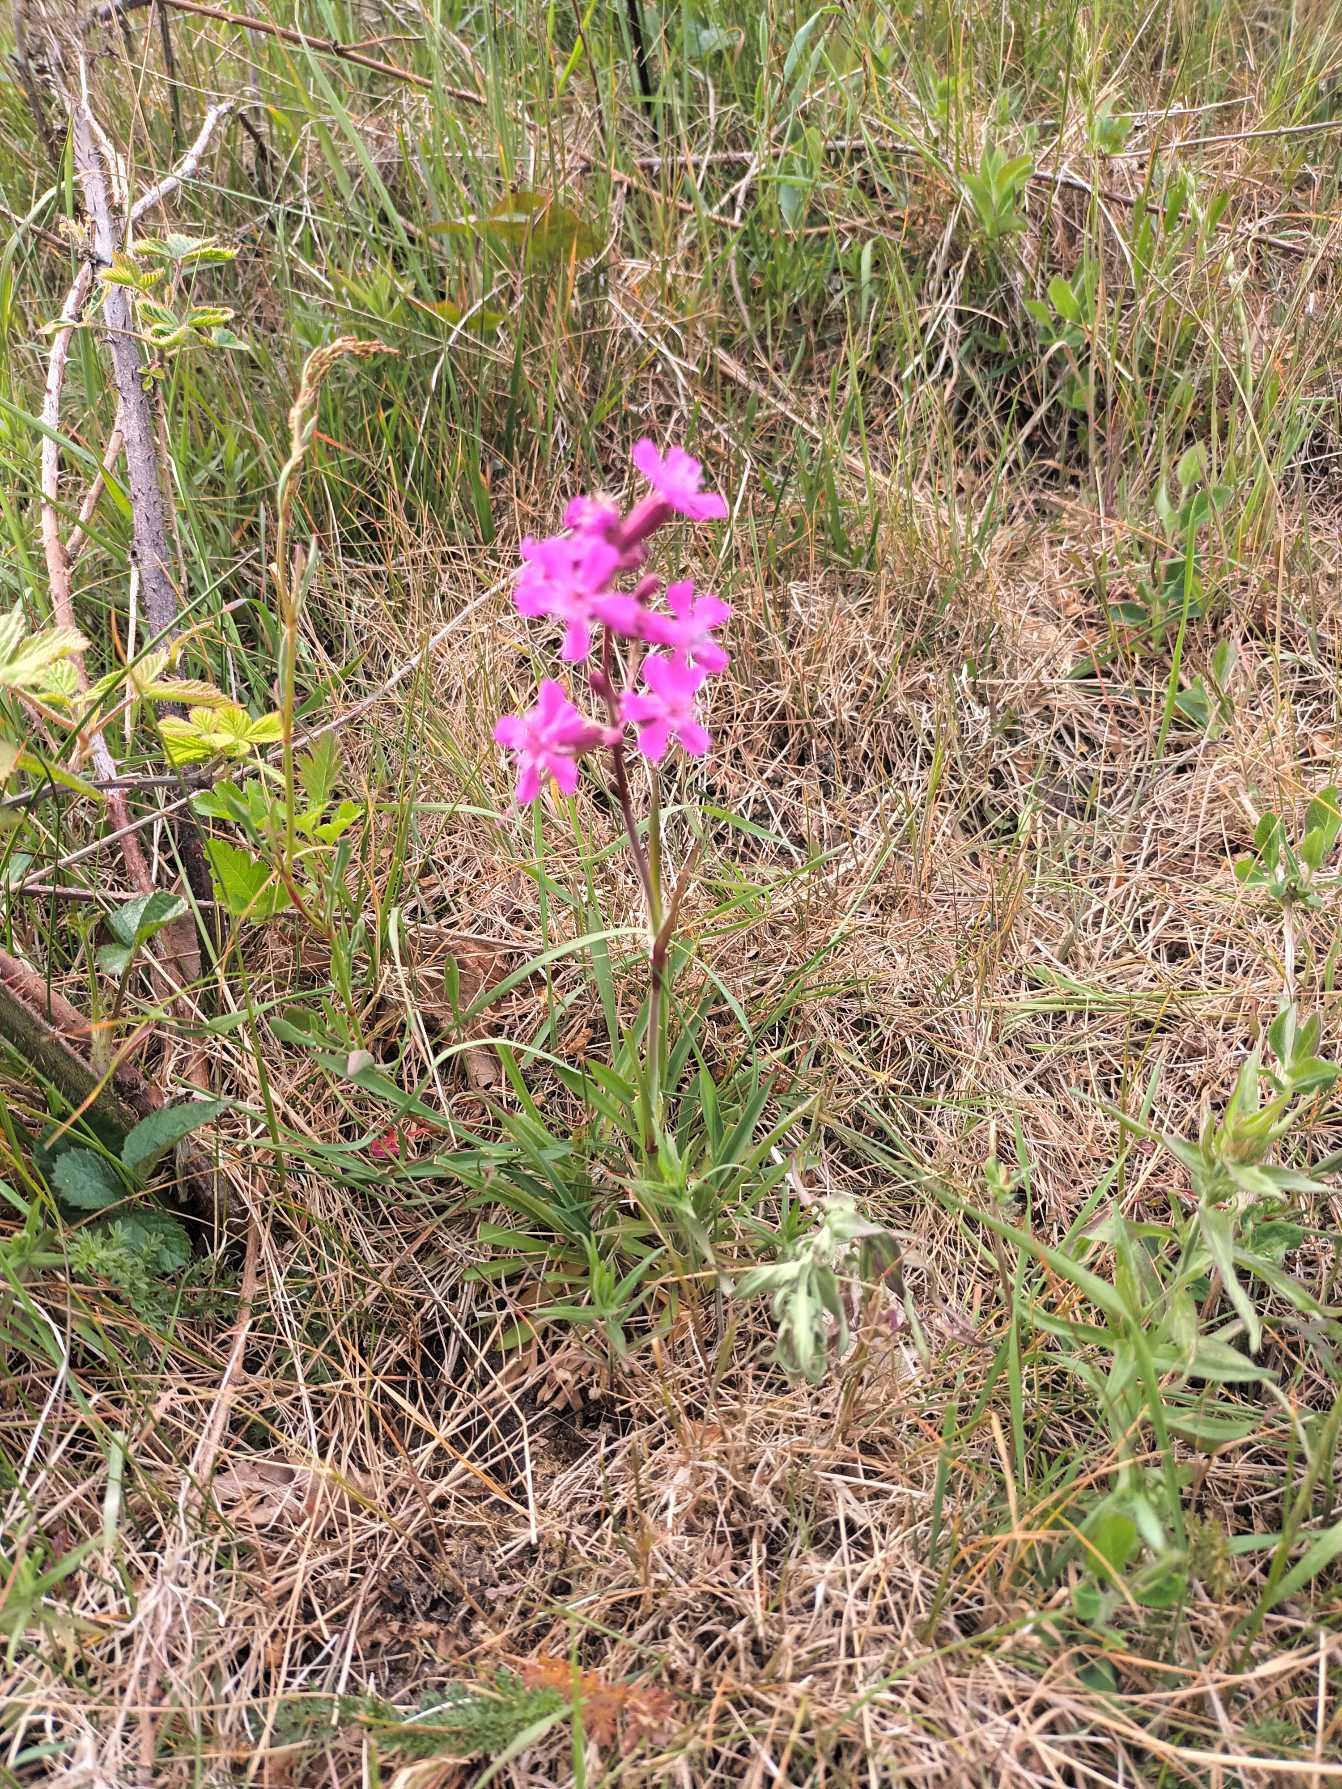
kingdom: Plantae
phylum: Tracheophyta
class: Magnoliopsida
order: Caryophyllales
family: Caryophyllaceae
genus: Viscaria
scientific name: Viscaria vulgaris
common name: Tjærenellike
